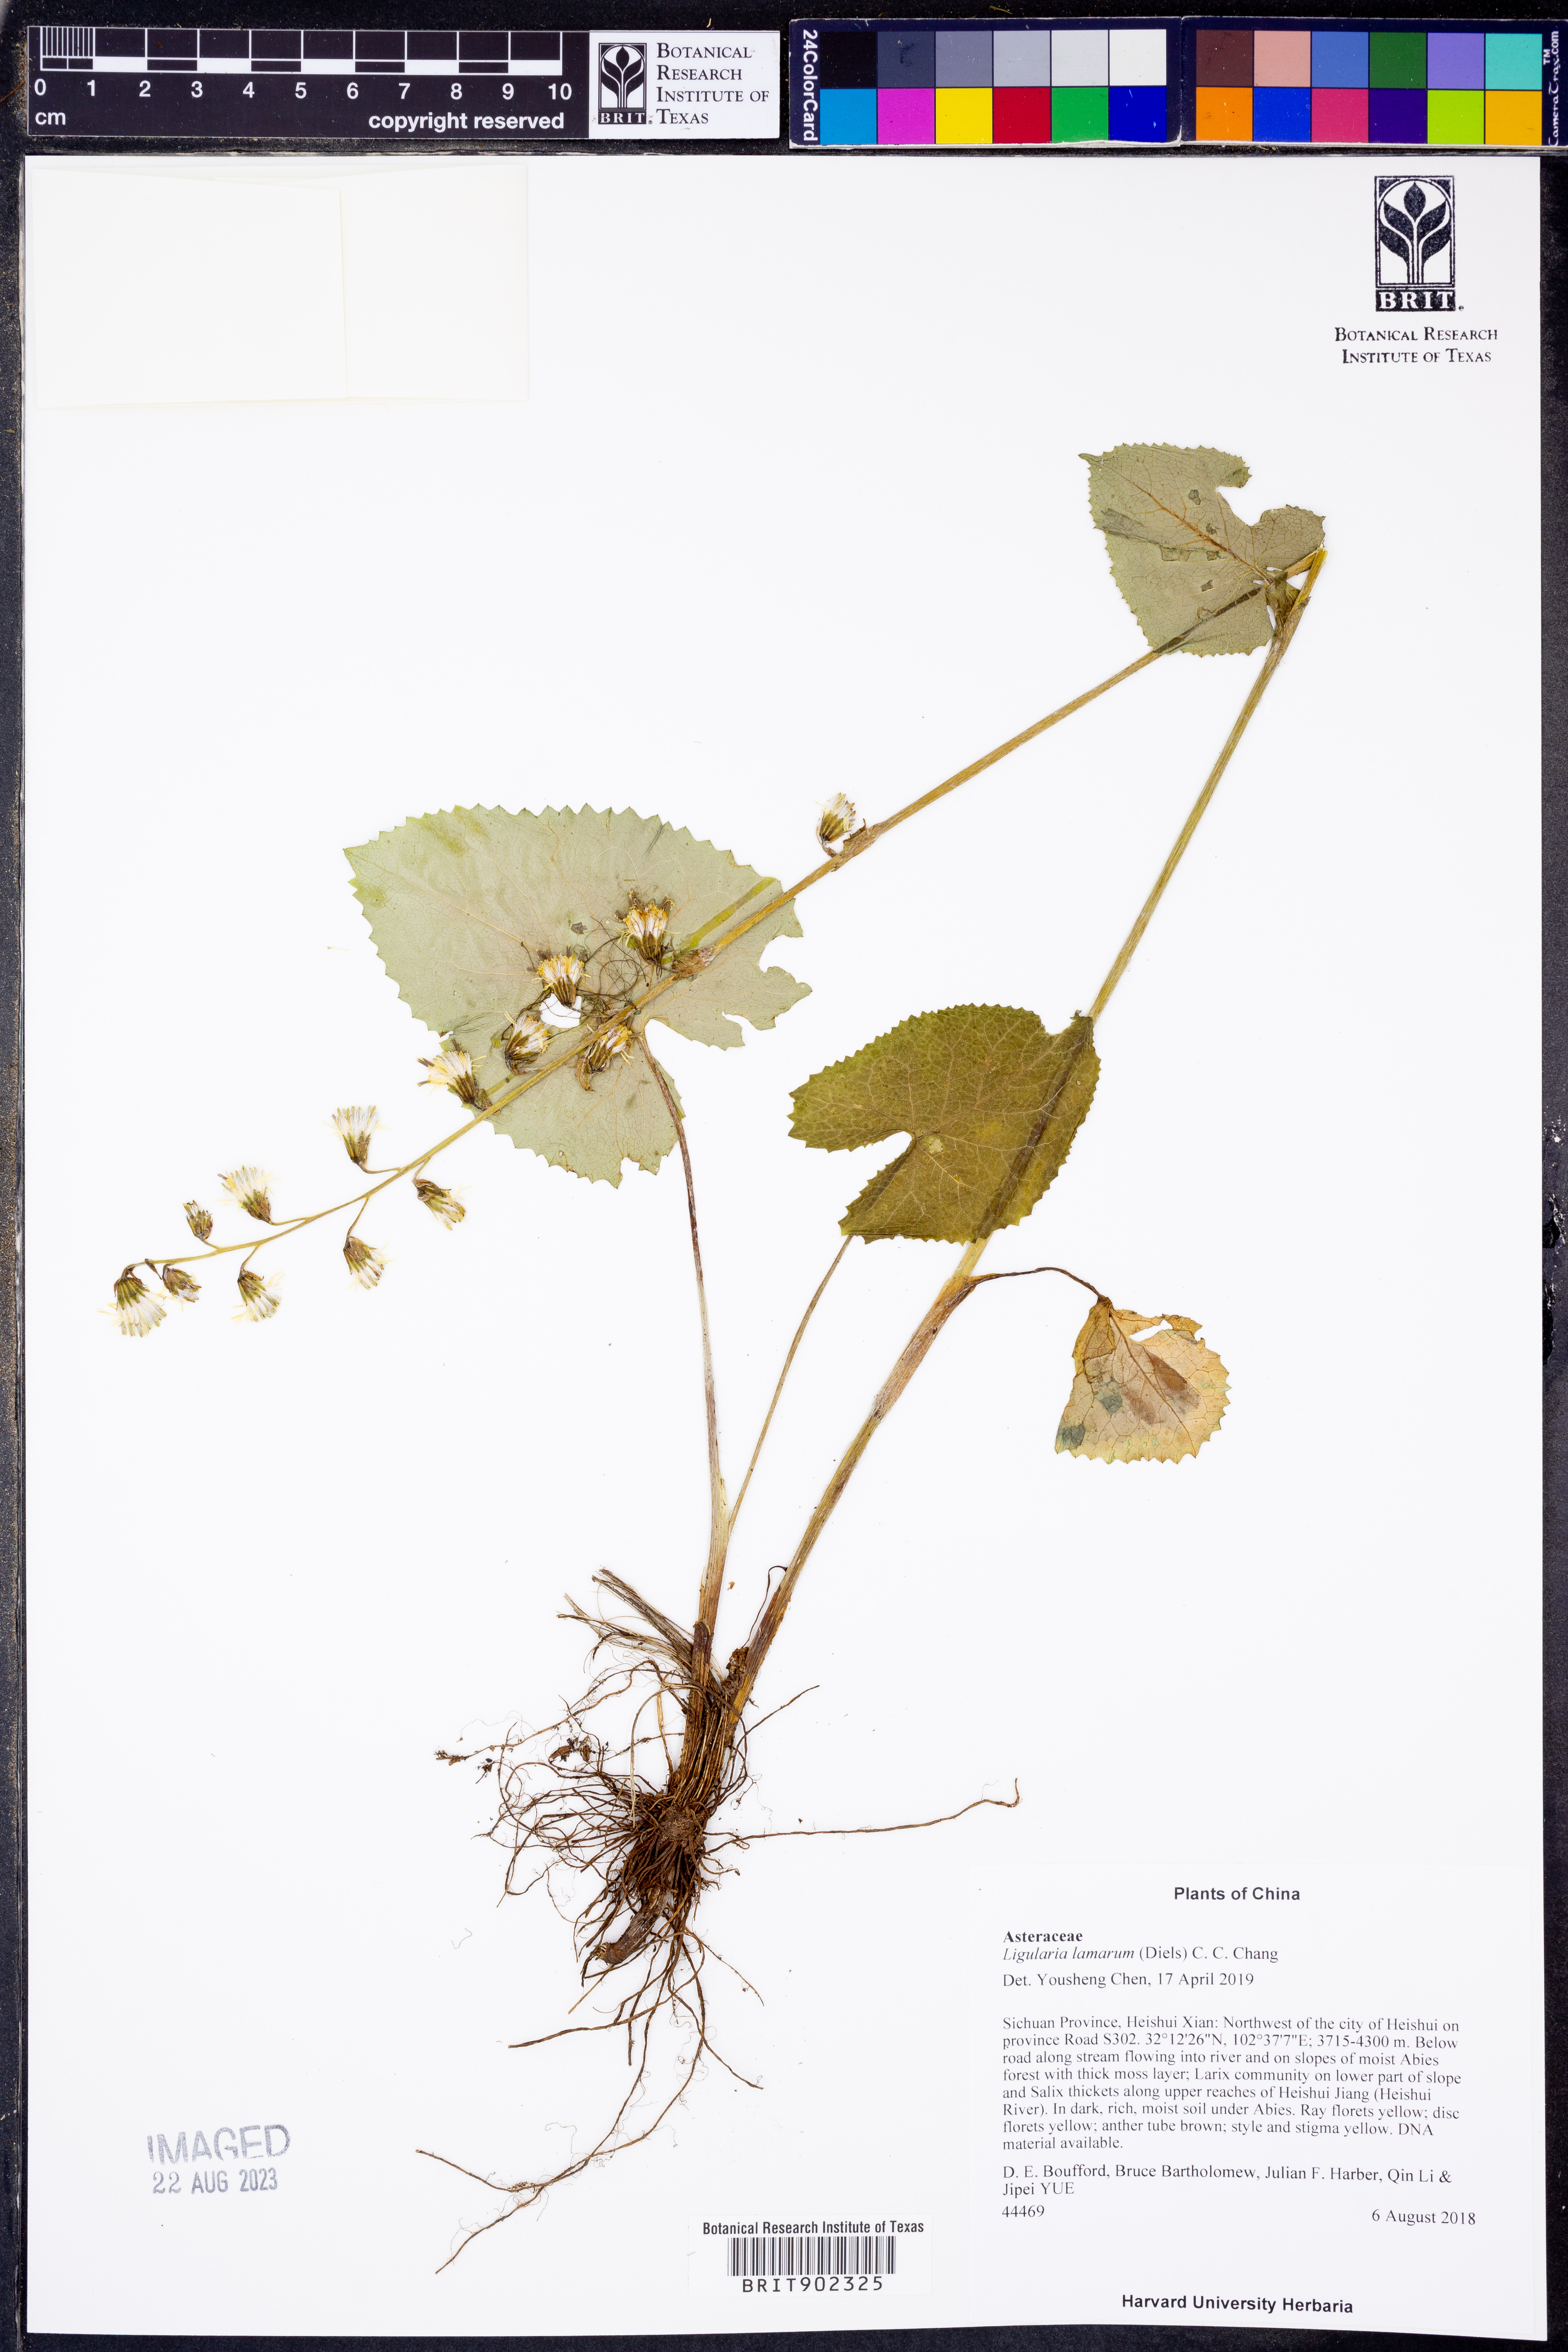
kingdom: Plantae
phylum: Tracheophyta
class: Magnoliopsida
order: Asterales
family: Asteraceae
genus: Ligularia
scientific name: Ligularia lamarum
